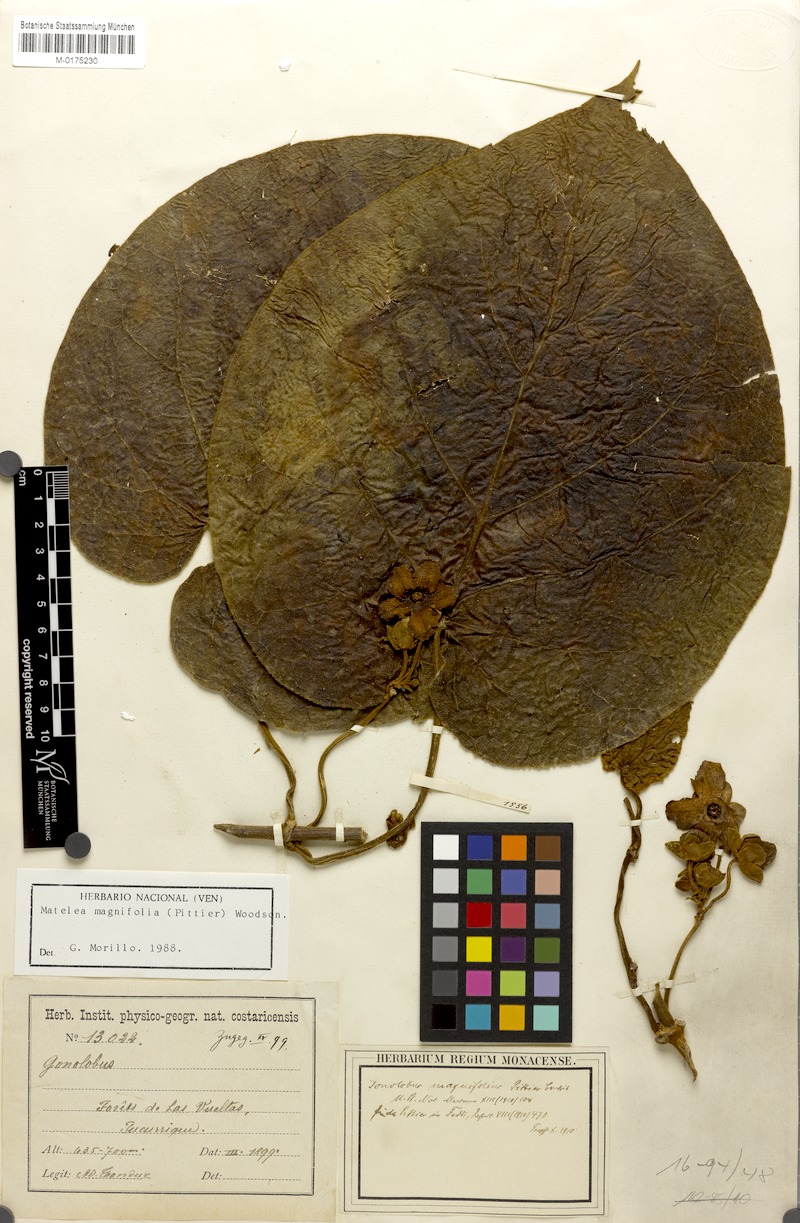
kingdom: Plantae
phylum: Tracheophyta
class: Magnoliopsida
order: Gentianales
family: Apocynaceae
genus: Bruceholstia
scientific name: Bruceholstia sidifolia
